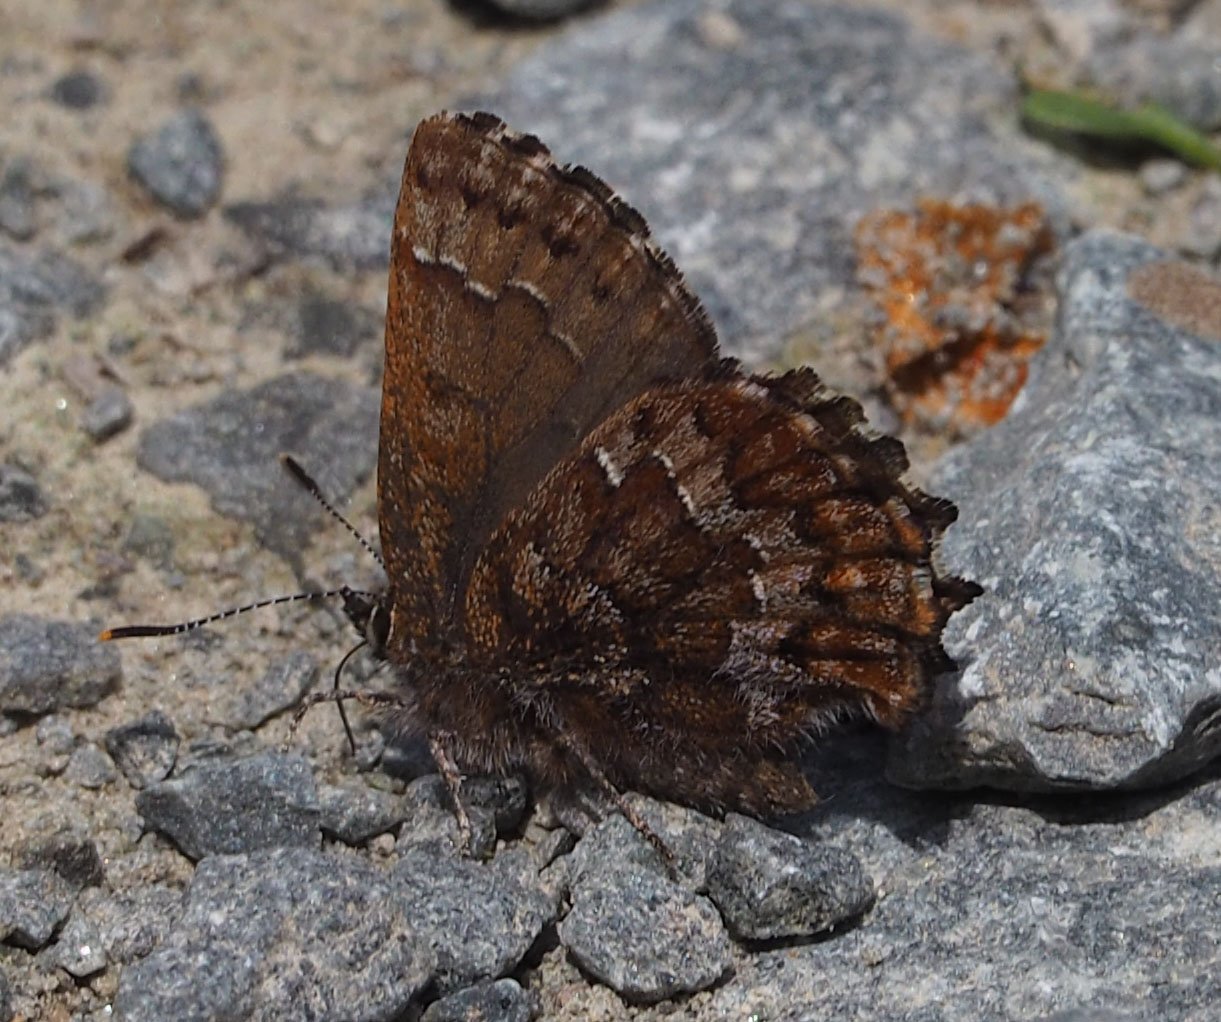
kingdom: Animalia
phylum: Arthropoda
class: Insecta
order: Lepidoptera
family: Lycaenidae
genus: Incisalia
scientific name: Incisalia niphon
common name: Eastern Pine Elfin
